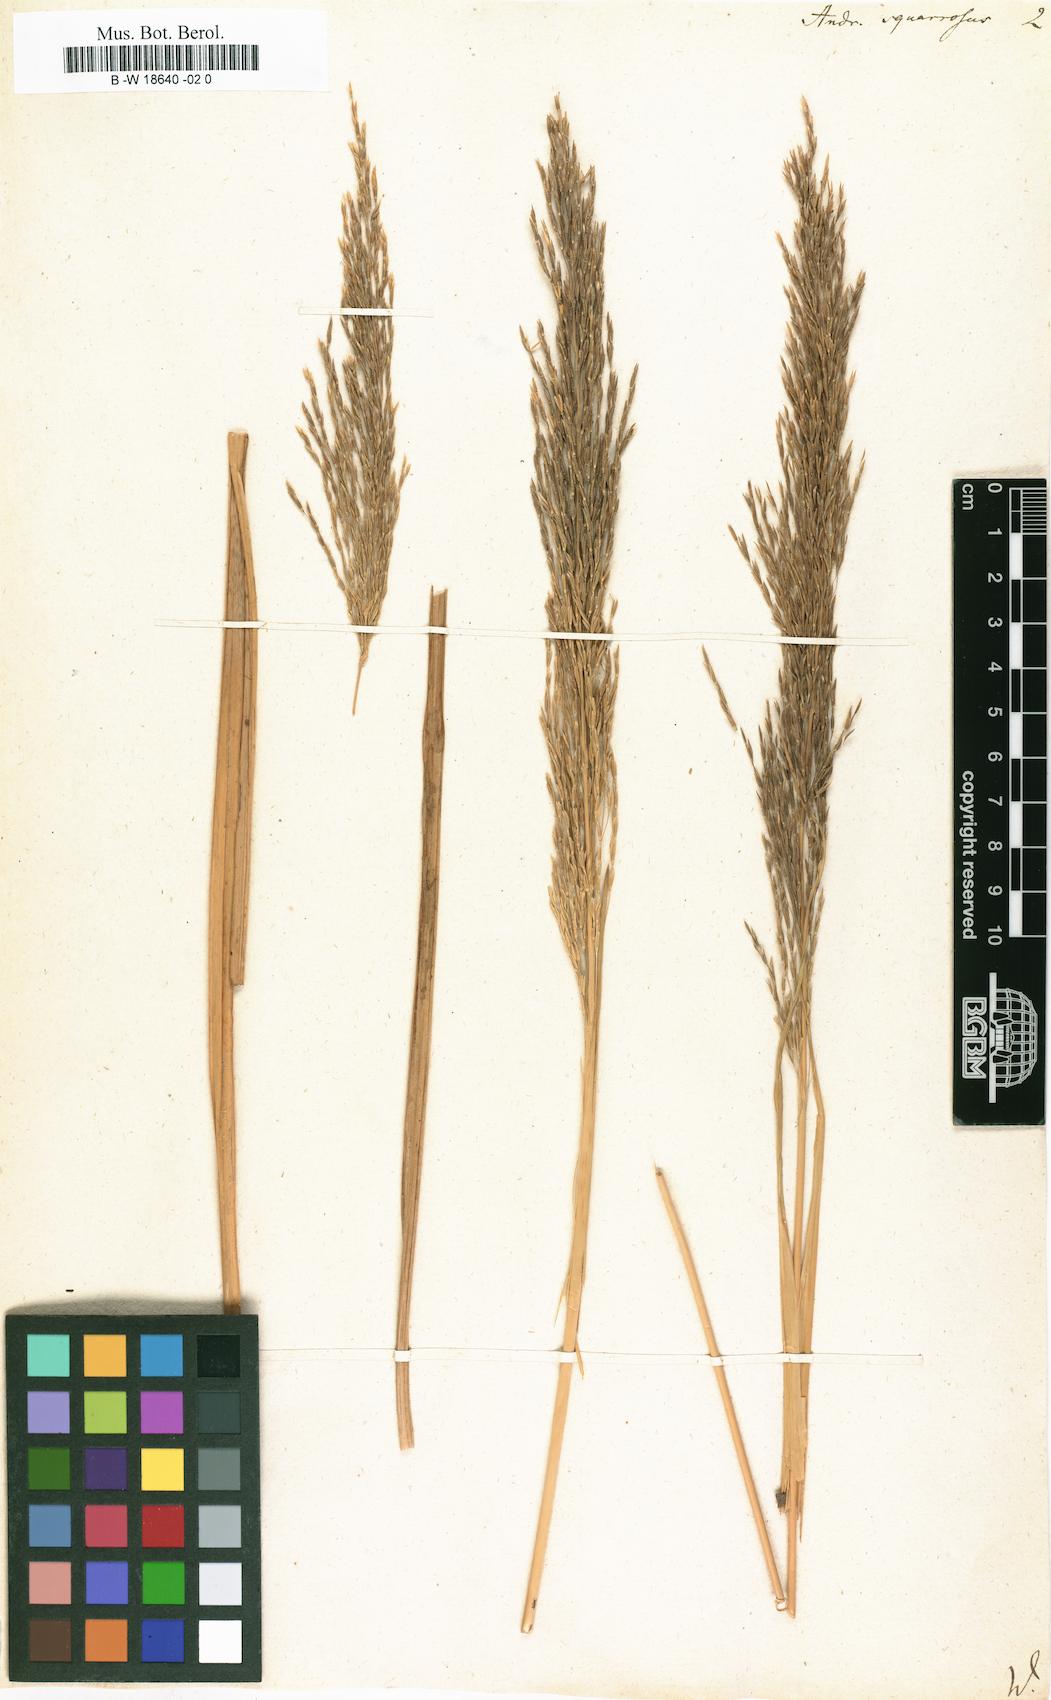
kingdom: Plantae
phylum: Tracheophyta
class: Liliopsida
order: Poales
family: Poaceae
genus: Pseudoraphis
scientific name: Pseudoraphis spinescens
